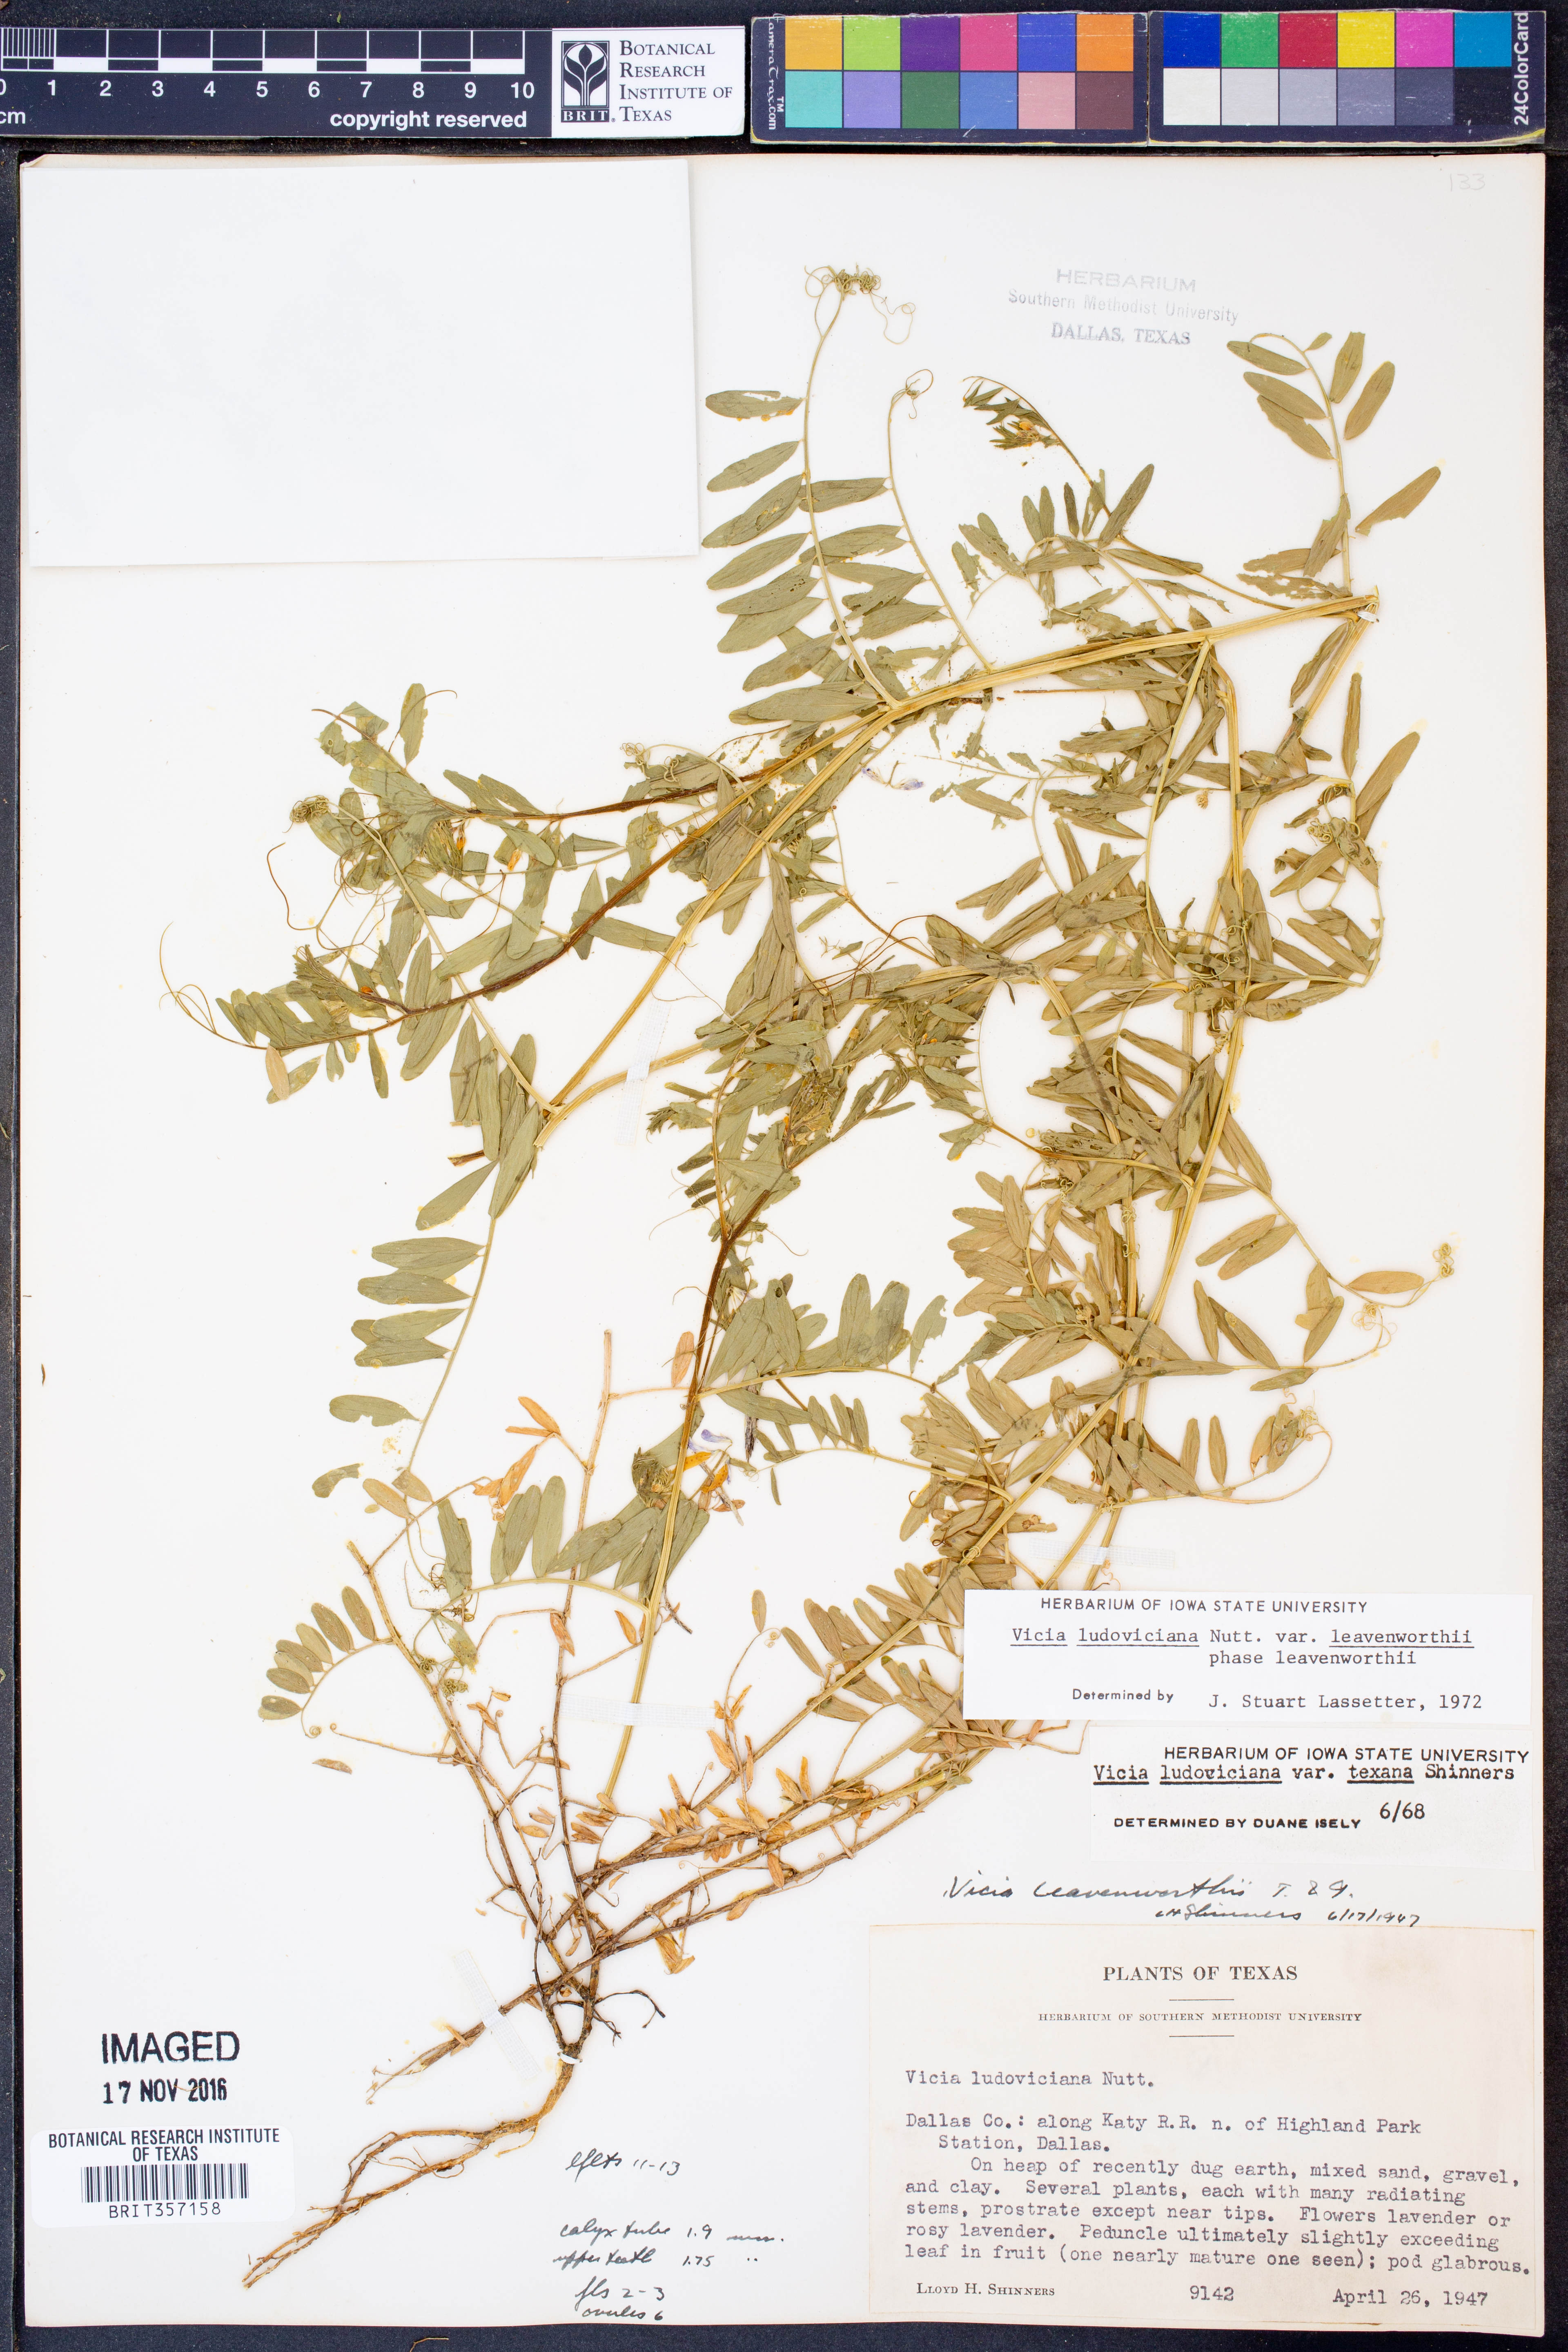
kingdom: Plantae
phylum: Tracheophyta
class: Magnoliopsida
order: Fabales
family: Fabaceae
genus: Vicia
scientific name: Vicia ludoviciana
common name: Louisiana vetch
